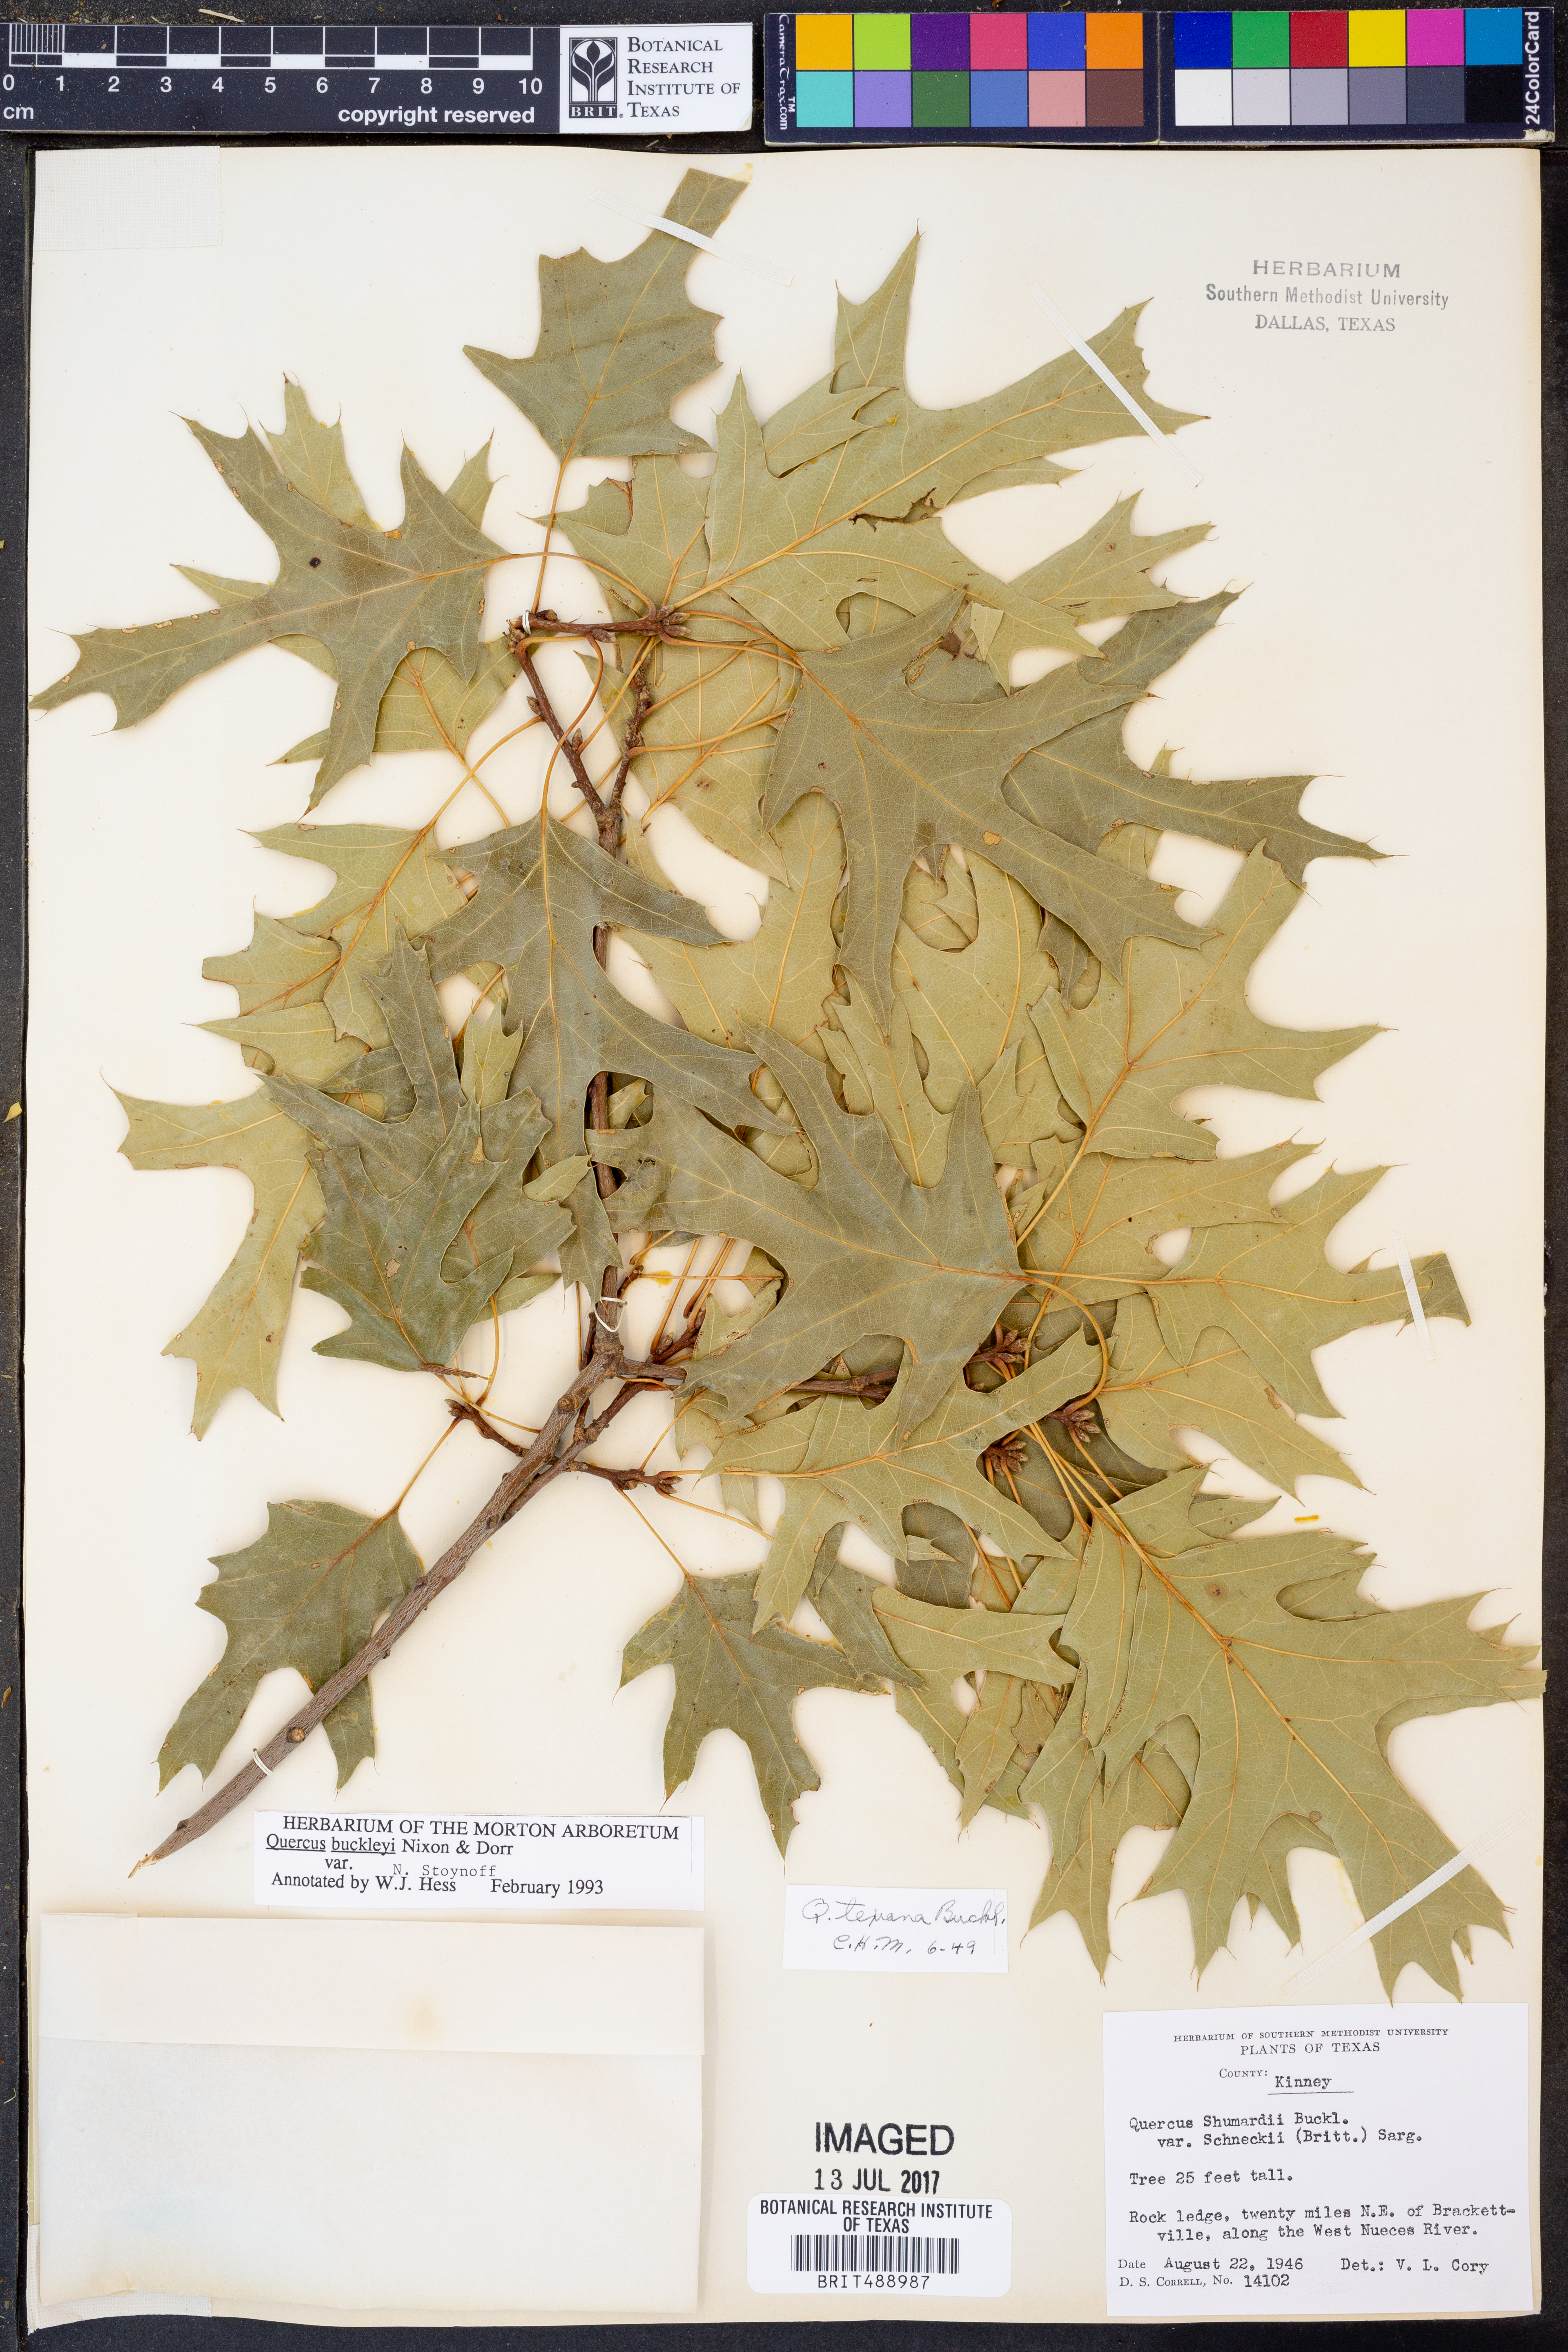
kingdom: Plantae
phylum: Tracheophyta
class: Magnoliopsida
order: Fagales
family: Fagaceae
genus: Quercus
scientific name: Quercus buckleyi
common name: Buckley oak
